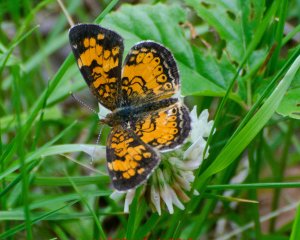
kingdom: Animalia
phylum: Arthropoda
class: Insecta
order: Lepidoptera
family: Nymphalidae
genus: Phyciodes
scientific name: Phyciodes tharos
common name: Northern Crescent
